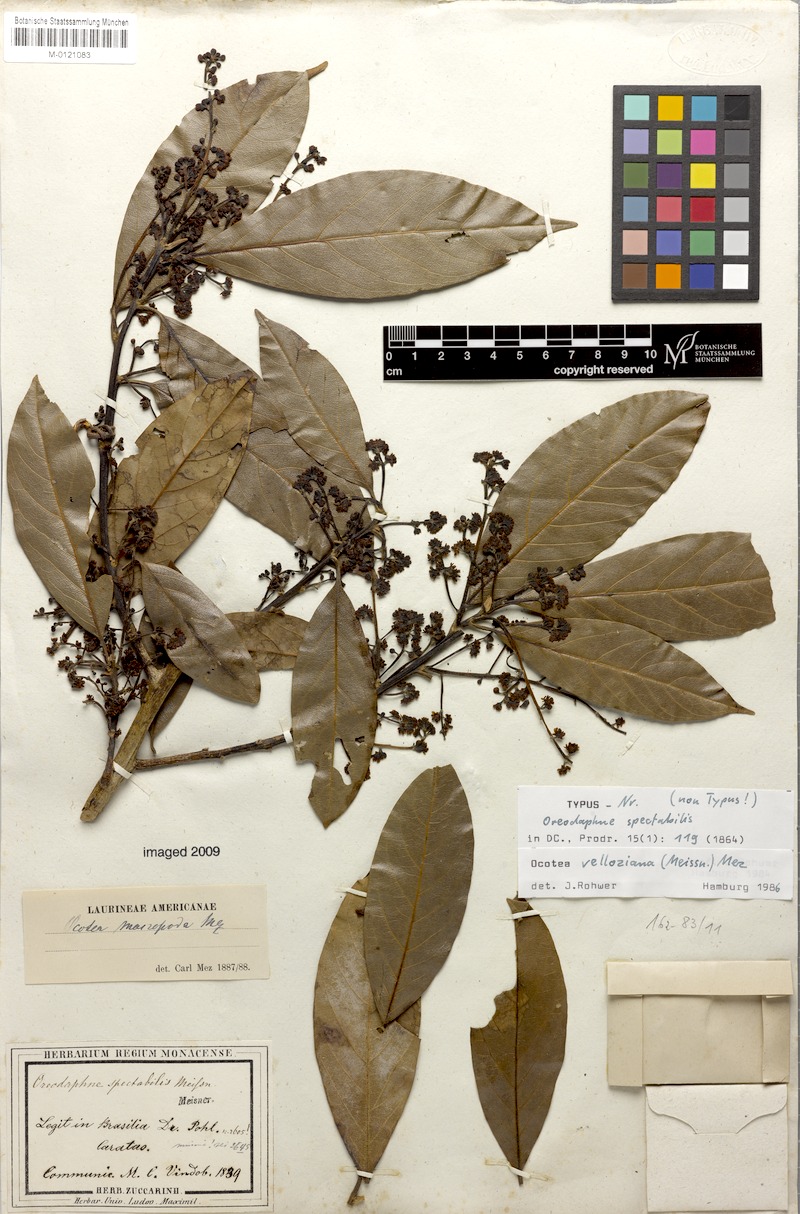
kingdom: Plantae
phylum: Tracheophyta
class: Magnoliopsida
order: Laurales
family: Lauraceae
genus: Ocotea
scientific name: Ocotea velloziana
